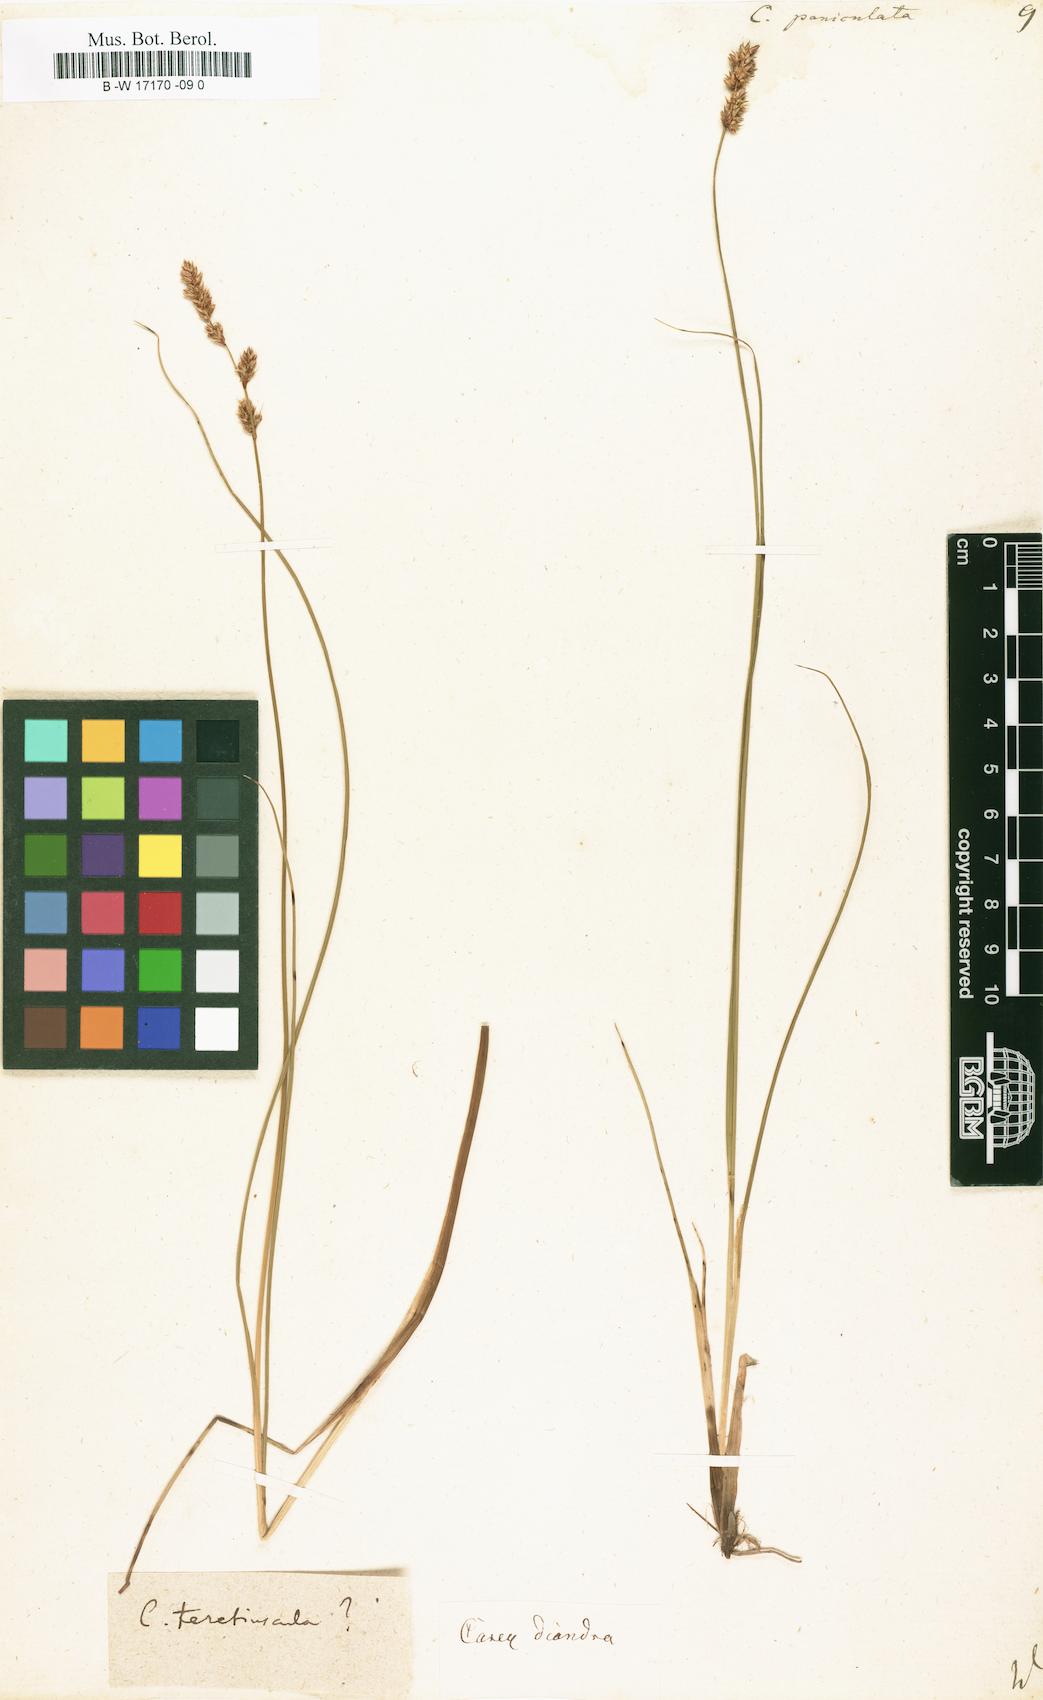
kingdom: Plantae
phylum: Tracheophyta
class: Liliopsida
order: Poales
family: Cyperaceae
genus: Carex
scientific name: Carex paniculata
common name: Greater tussock-sedge
